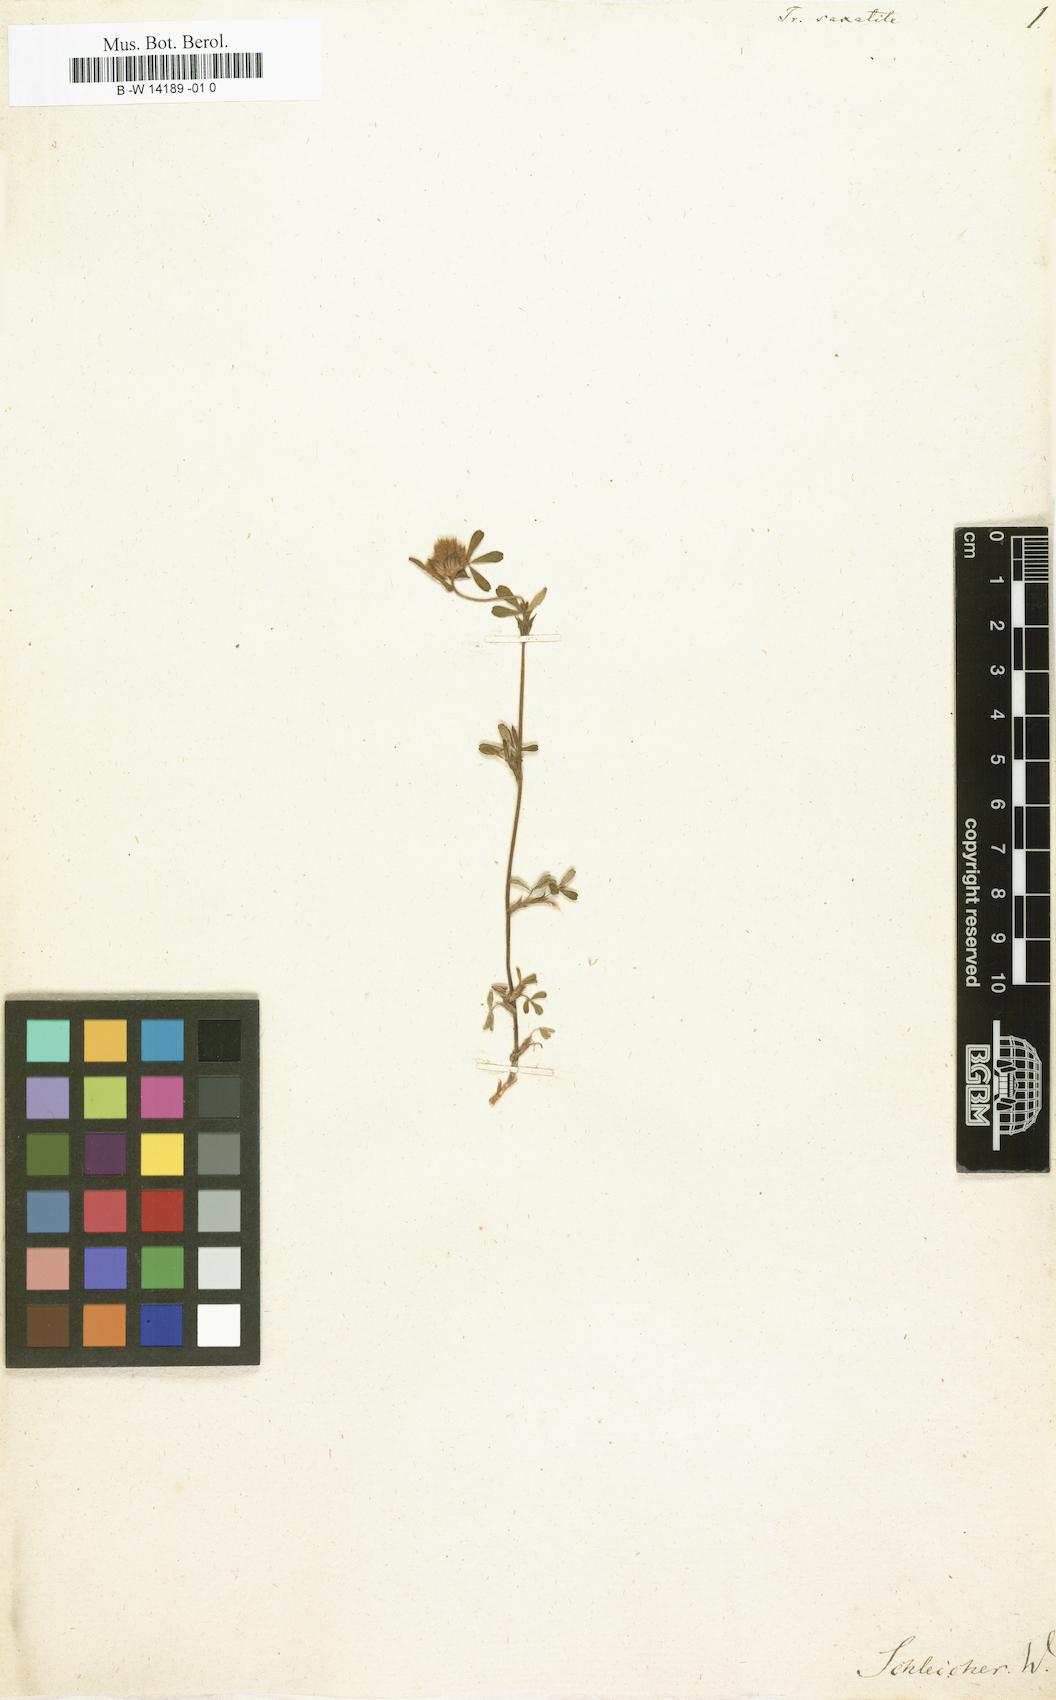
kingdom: Plantae
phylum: Tracheophyta
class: Magnoliopsida
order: Fabales
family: Fabaceae
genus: Trifolium
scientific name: Trifolium saxatile
